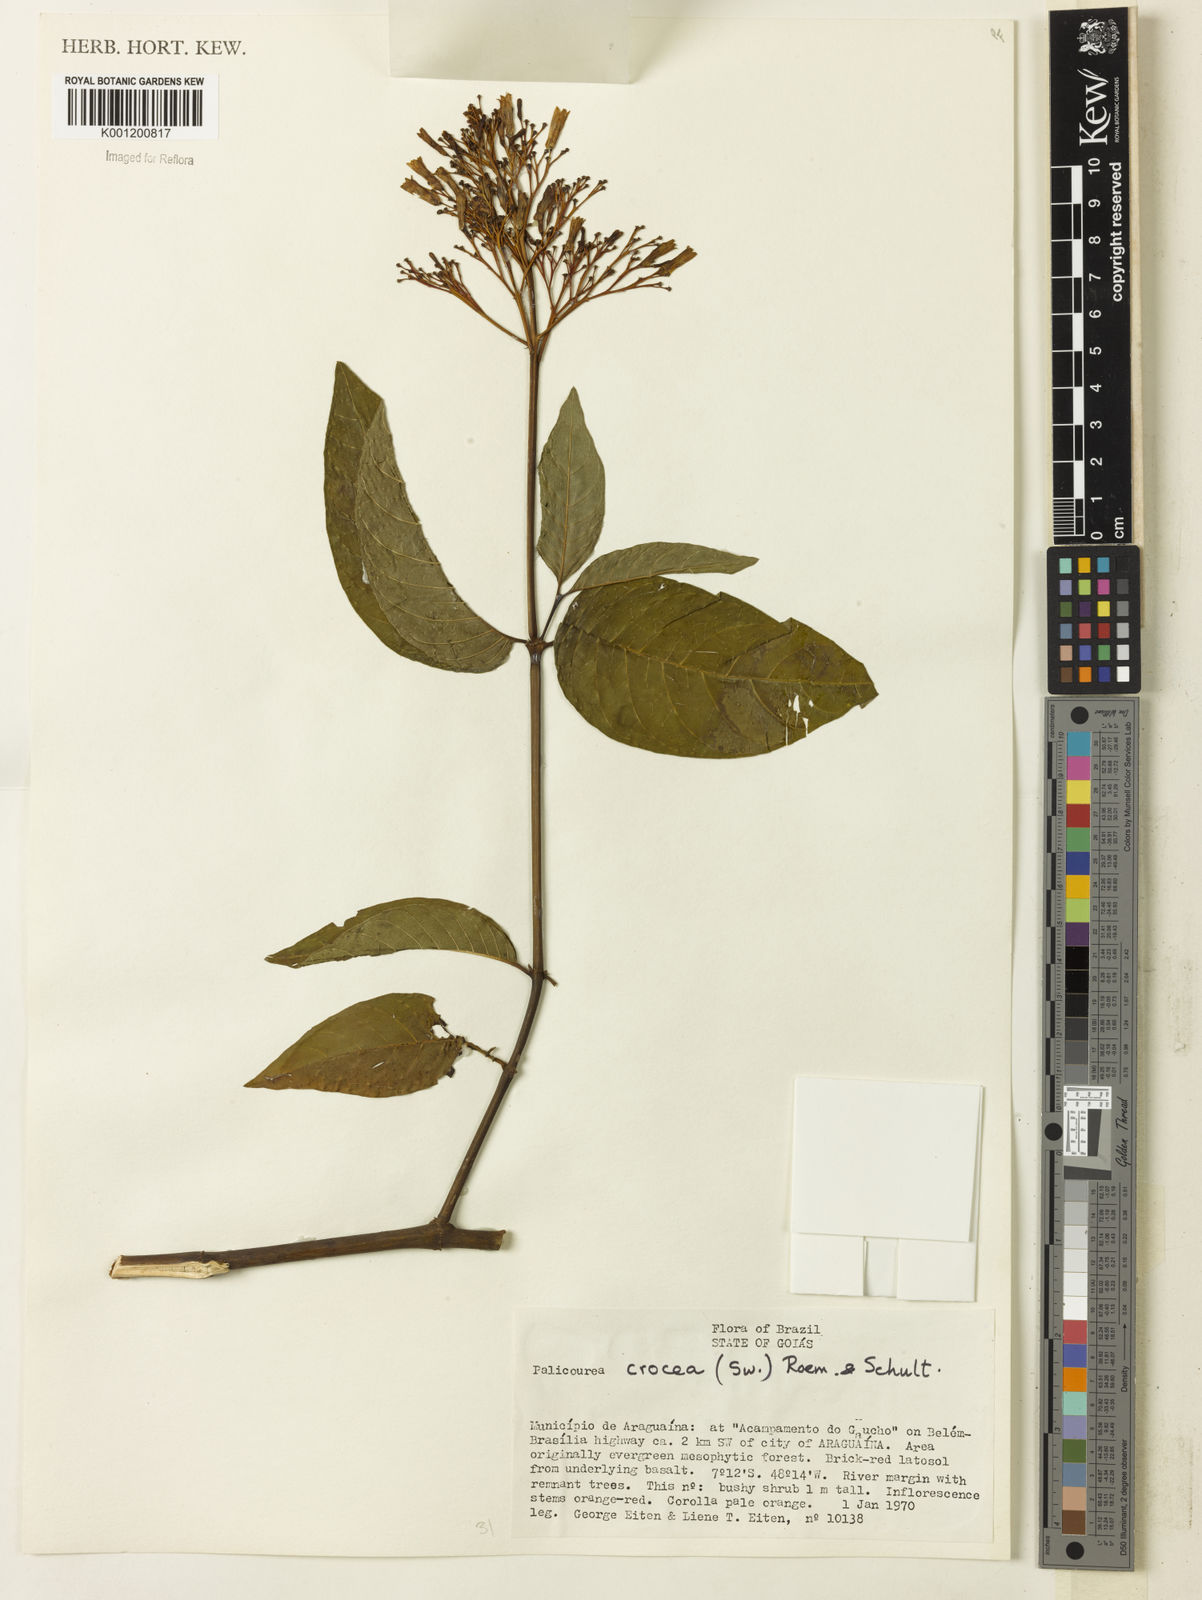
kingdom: Plantae
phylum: Tracheophyta
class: Magnoliopsida
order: Gentianales
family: Rubiaceae
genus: Palicourea
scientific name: Palicourea crocea
